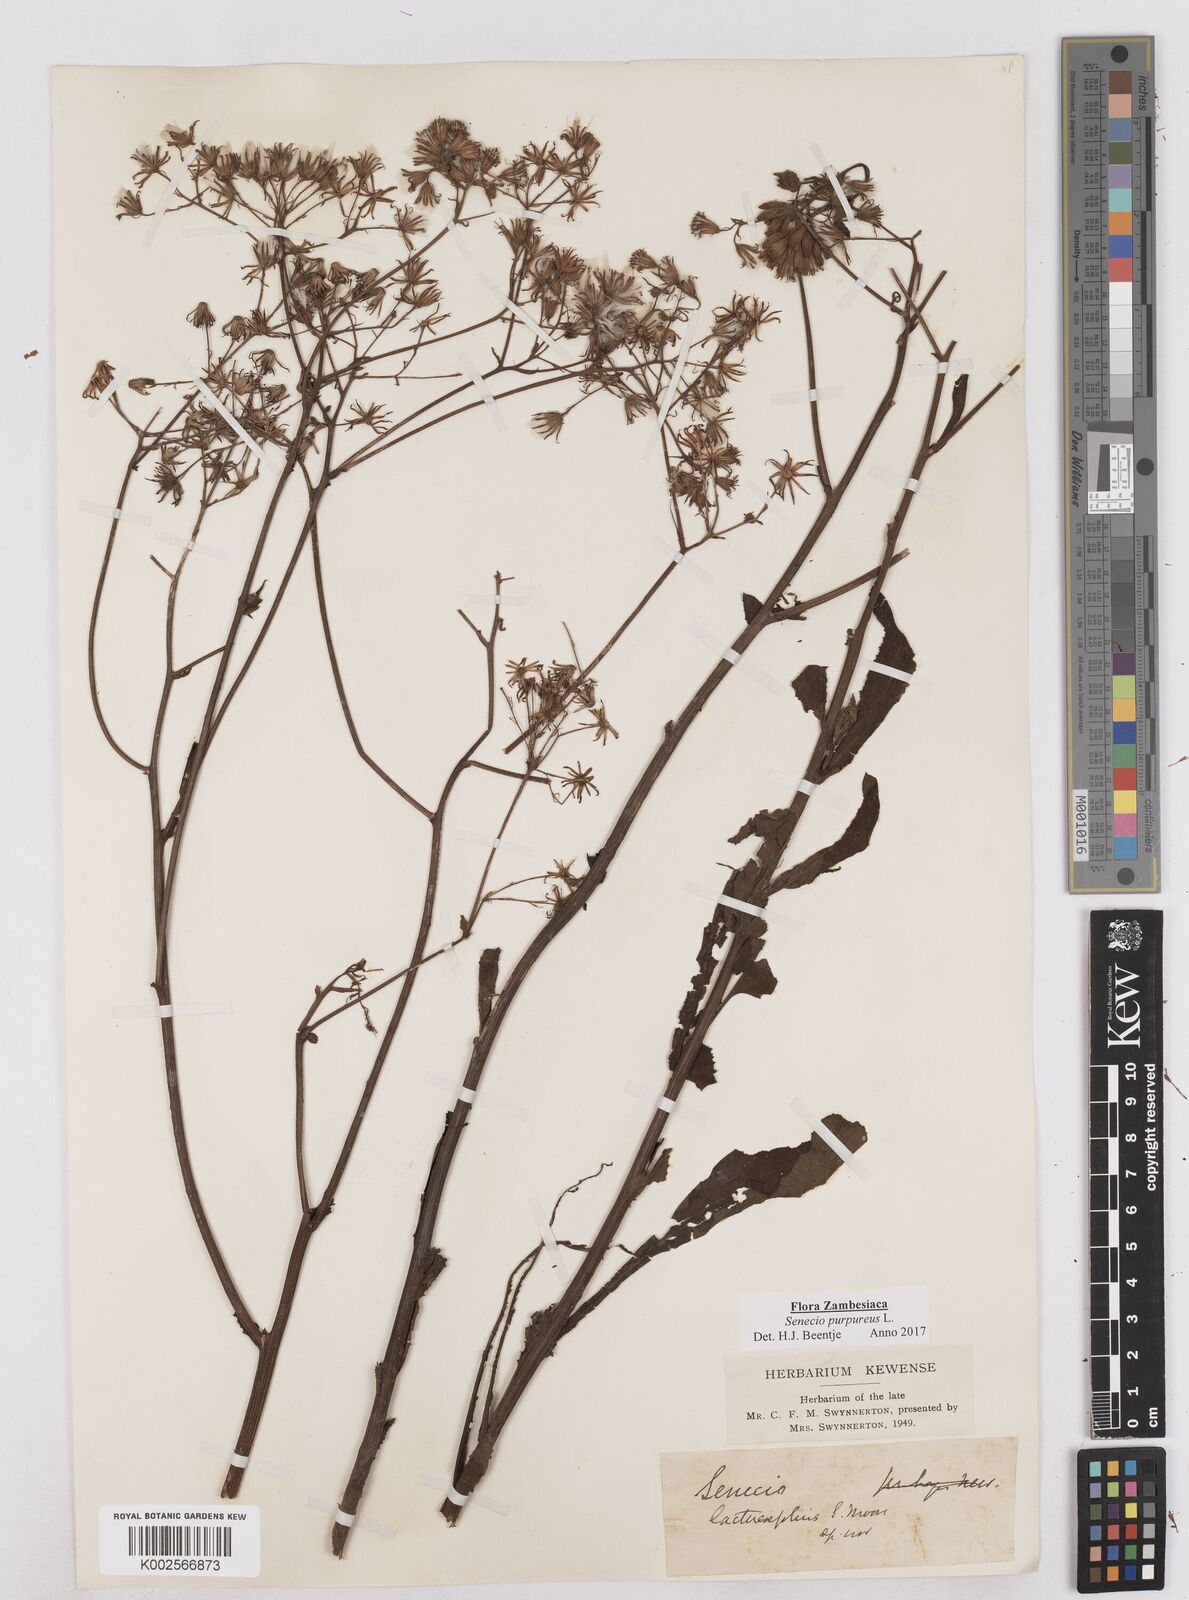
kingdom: Plantae
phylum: Tracheophyta
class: Magnoliopsida
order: Asterales
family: Asteraceae
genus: Senecio
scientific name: Senecio purpureus
